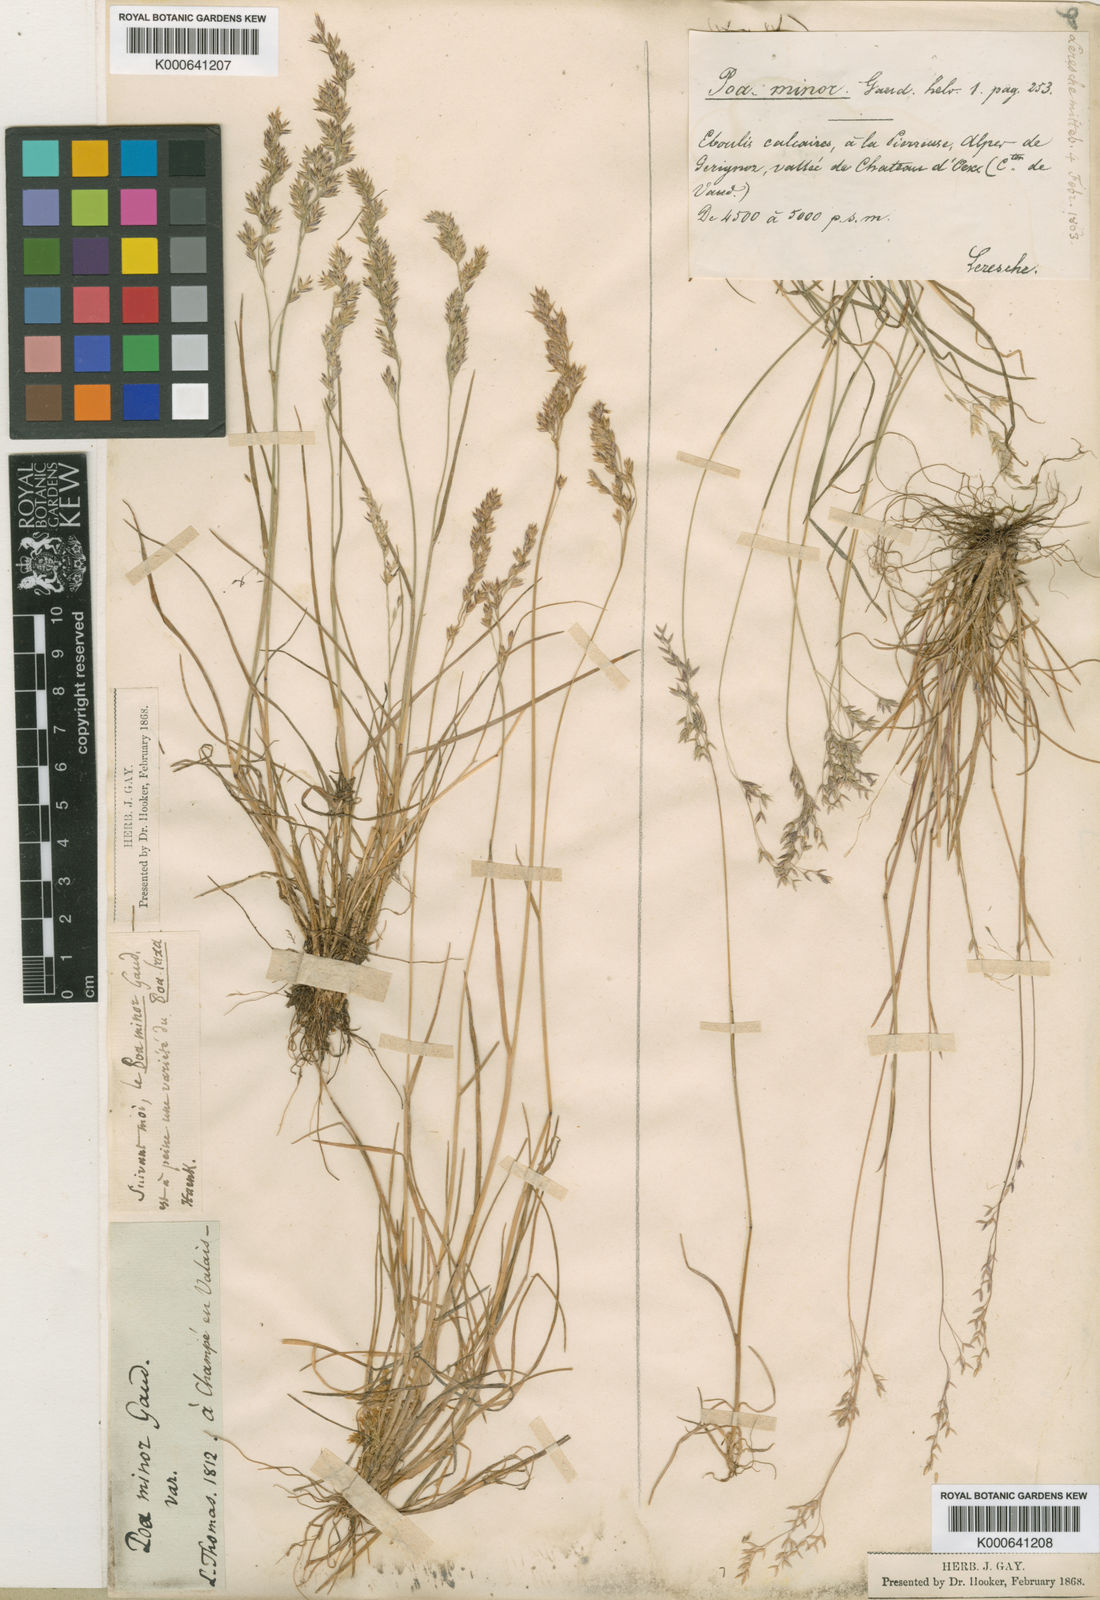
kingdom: Plantae
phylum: Tracheophyta
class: Liliopsida
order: Poales
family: Poaceae
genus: Poa
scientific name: Poa minor
